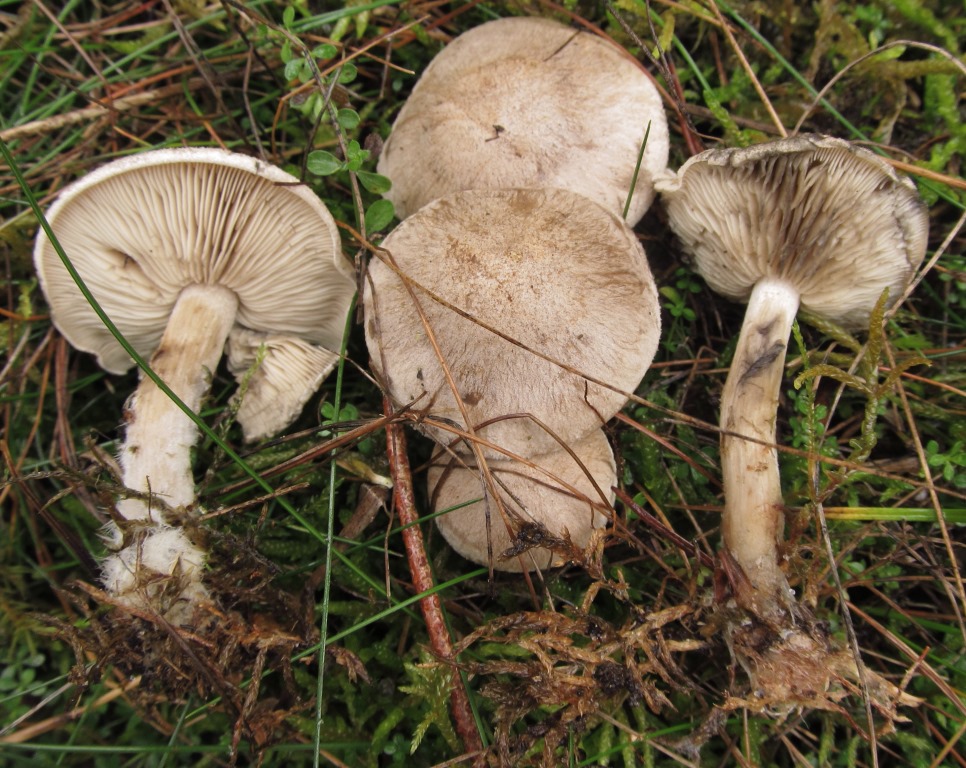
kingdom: Fungi
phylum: Basidiomycota
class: Agaricomycetes
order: Agaricales
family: Lyophyllaceae
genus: Calocybe
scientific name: Calocybe gangraenosa
